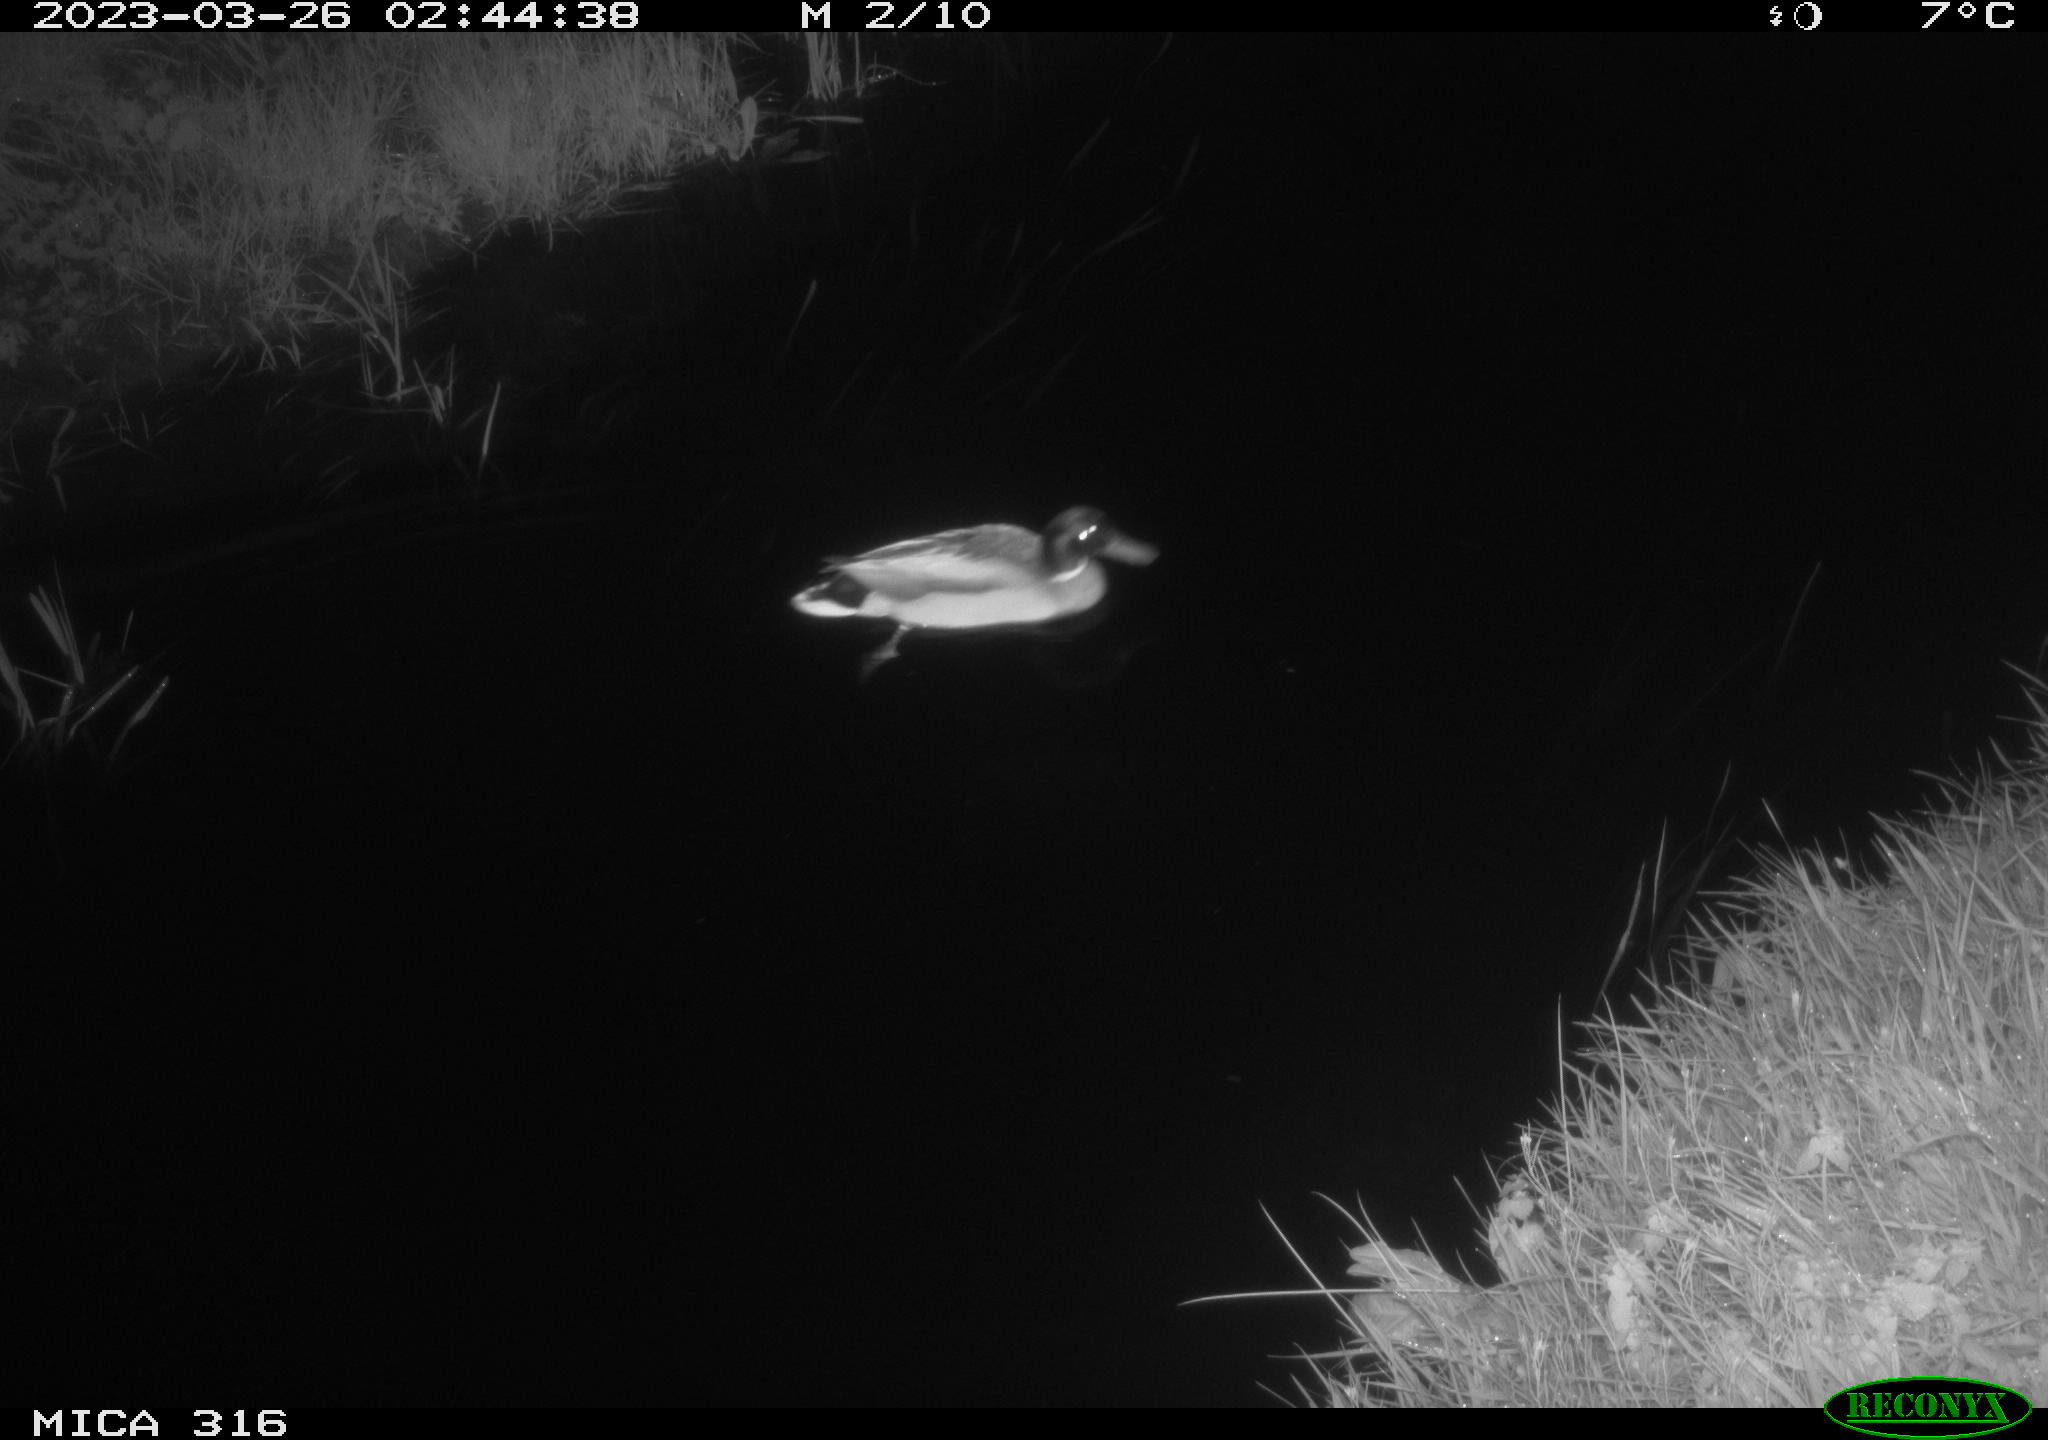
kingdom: Animalia
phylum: Chordata
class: Aves
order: Anseriformes
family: Anatidae
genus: Anas
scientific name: Anas
